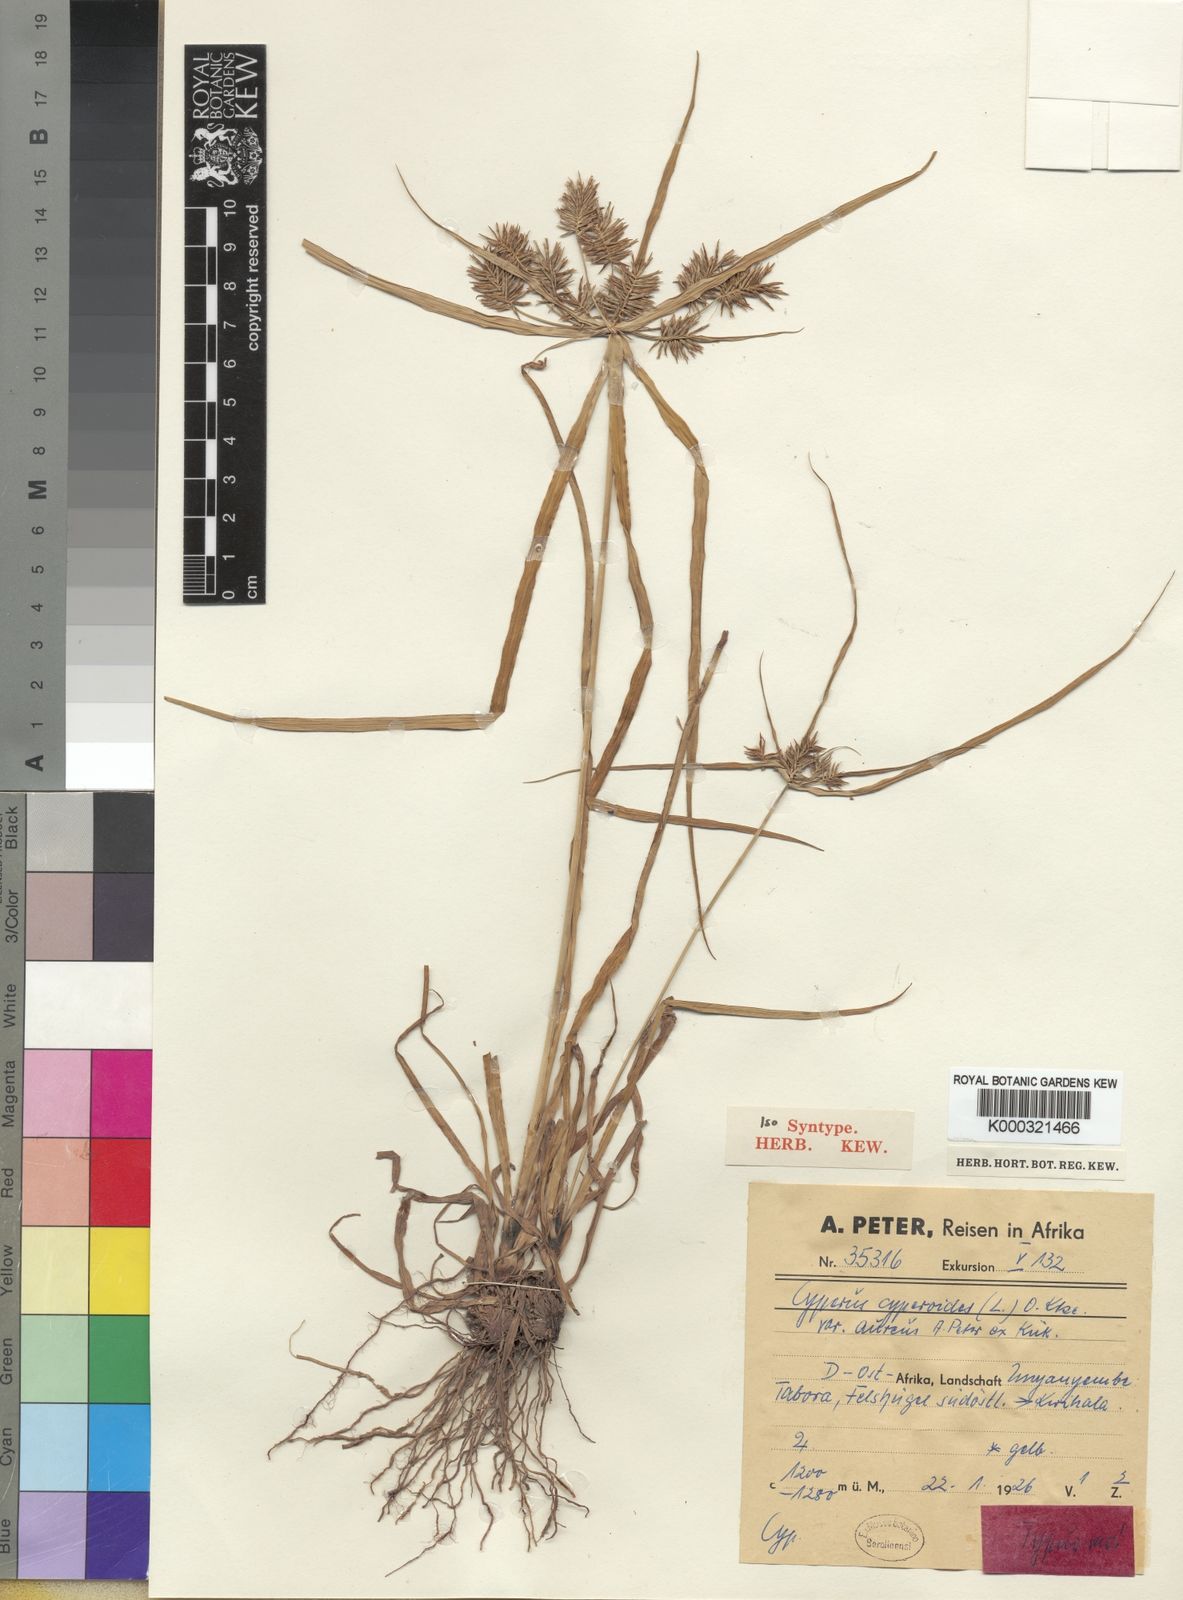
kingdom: Plantae
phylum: Tracheophyta
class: Liliopsida
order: Poales
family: Cyperaceae
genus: Cyperus
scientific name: Cyperus cyperoides
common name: Pacific island flat sedge
